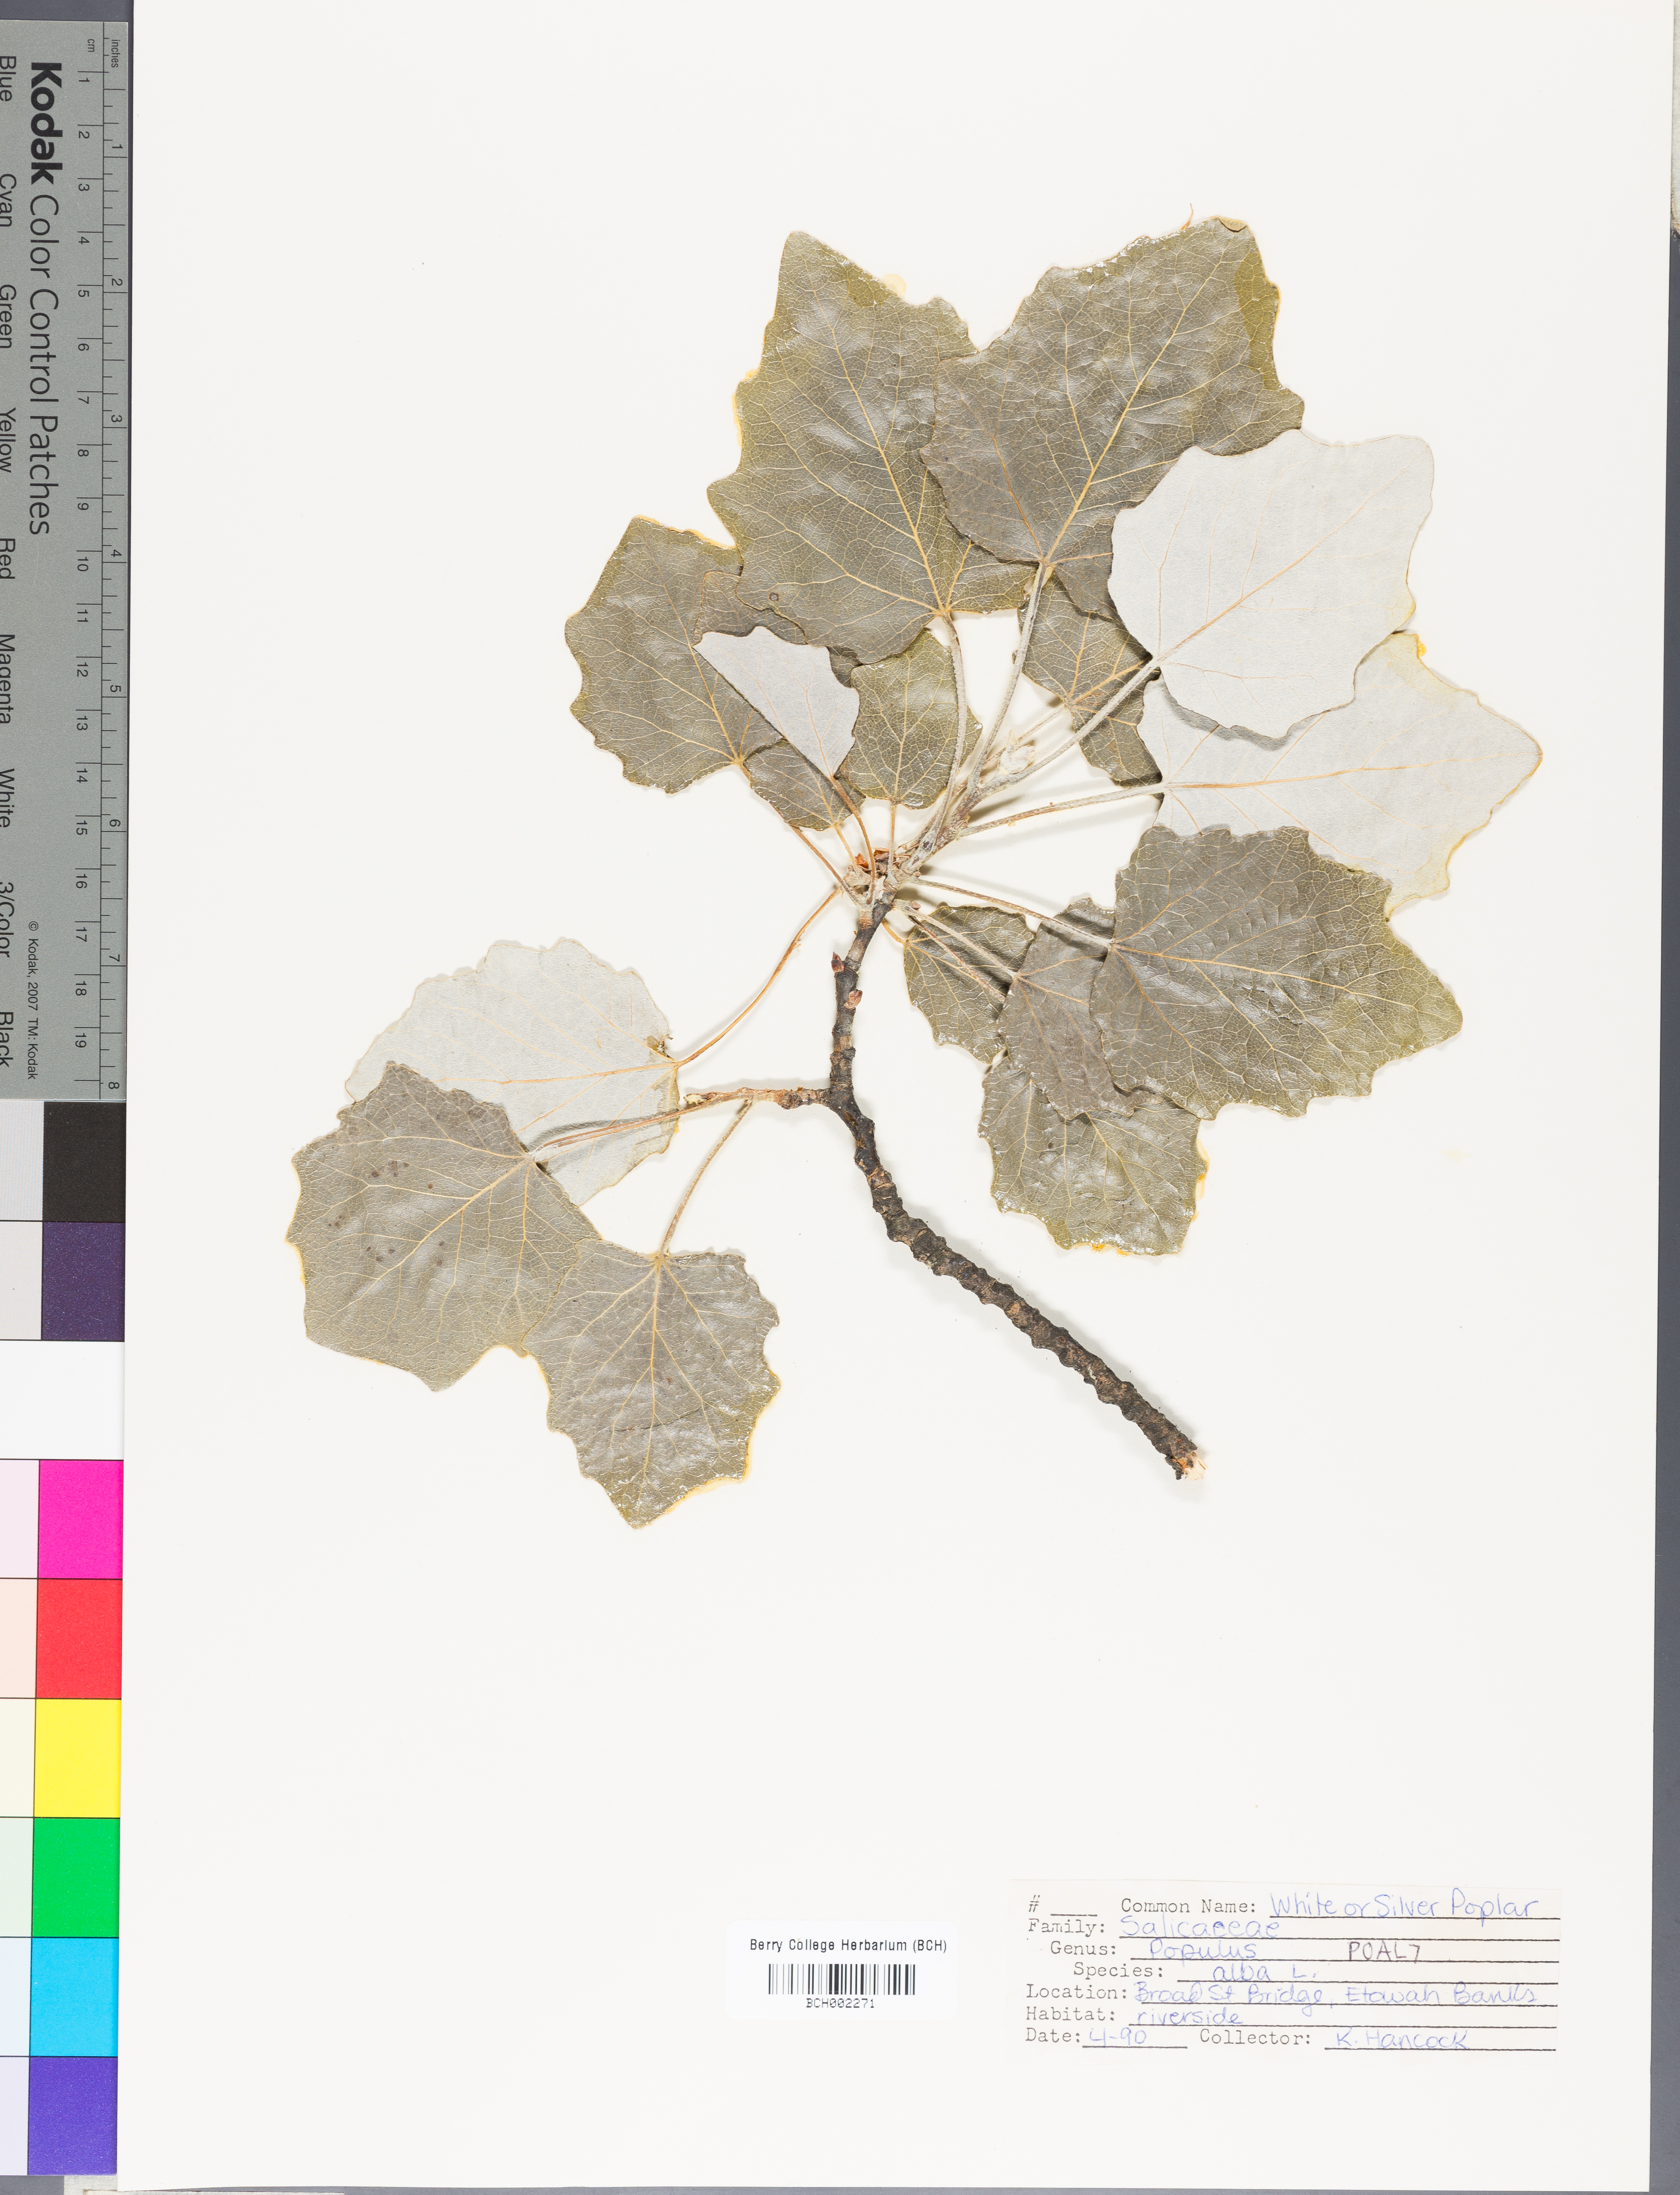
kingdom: Plantae
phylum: Tracheophyta
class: Magnoliopsida
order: Malpighiales
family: Salicaceae
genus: Populus
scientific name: Populus alba
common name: White poplar
